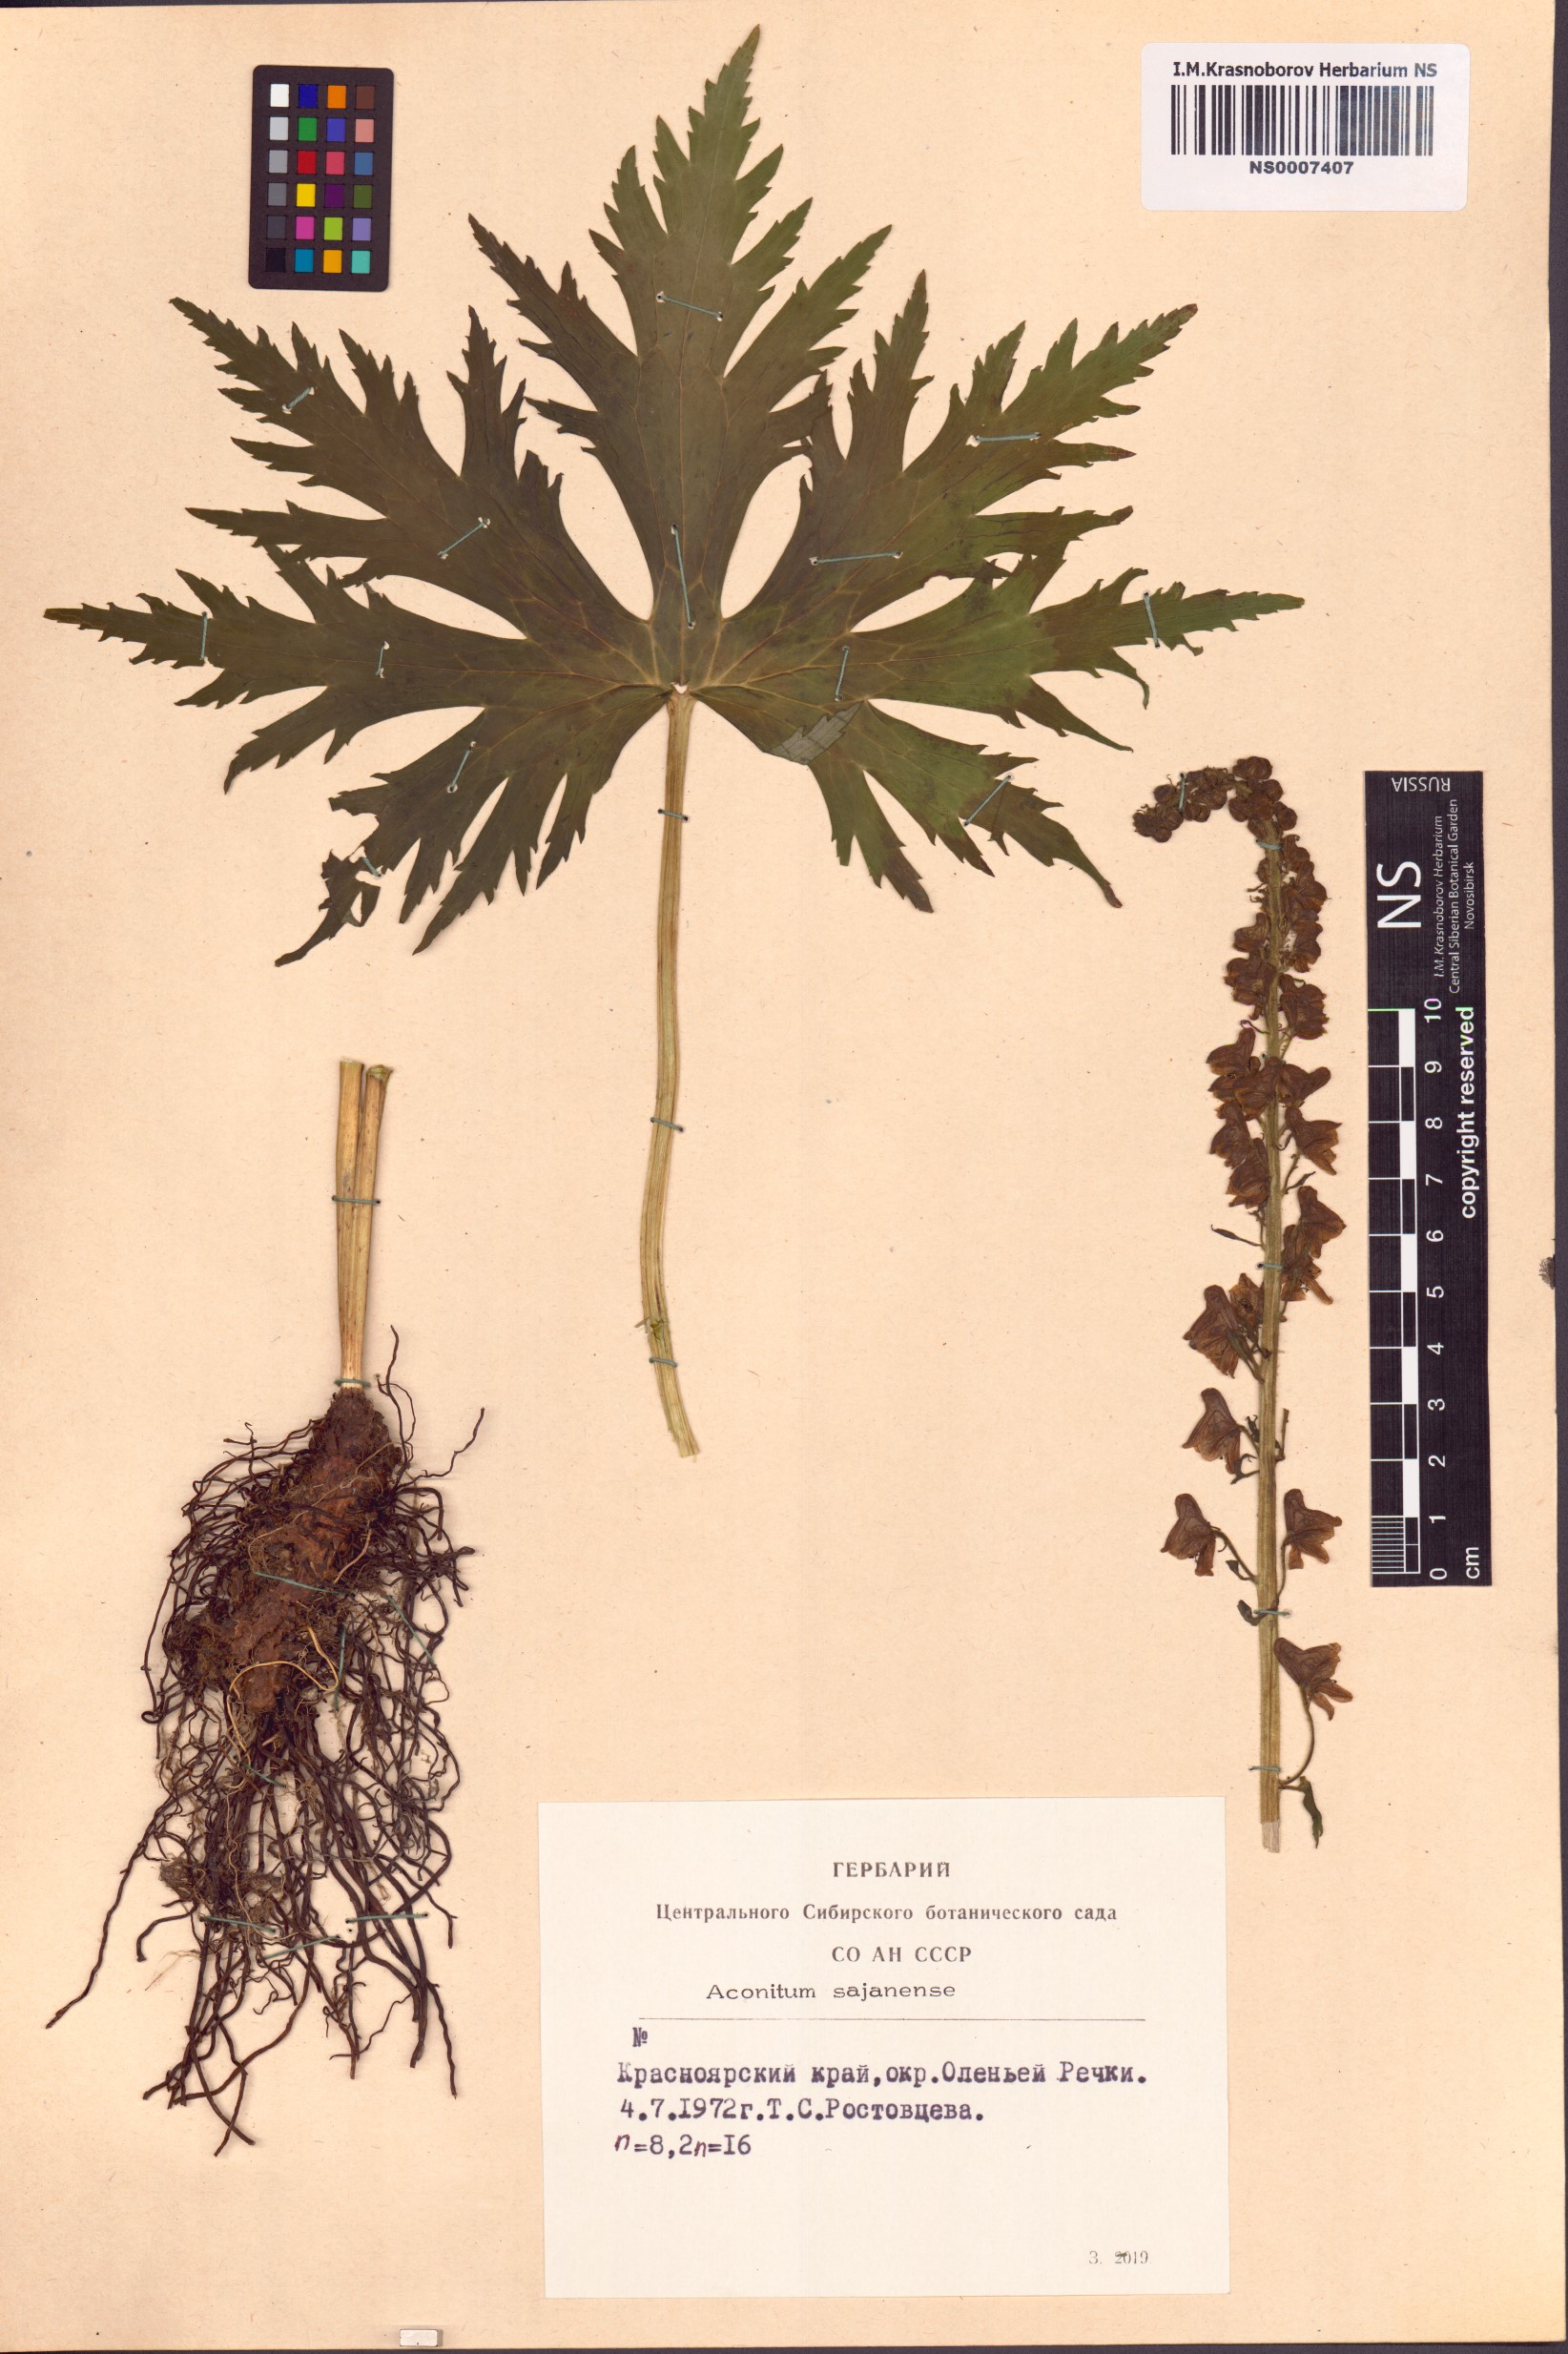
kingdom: Plantae
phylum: Tracheophyta
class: Magnoliopsida
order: Ranunculales
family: Ranunculaceae
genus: Aconitum
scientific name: Aconitum sajanense
